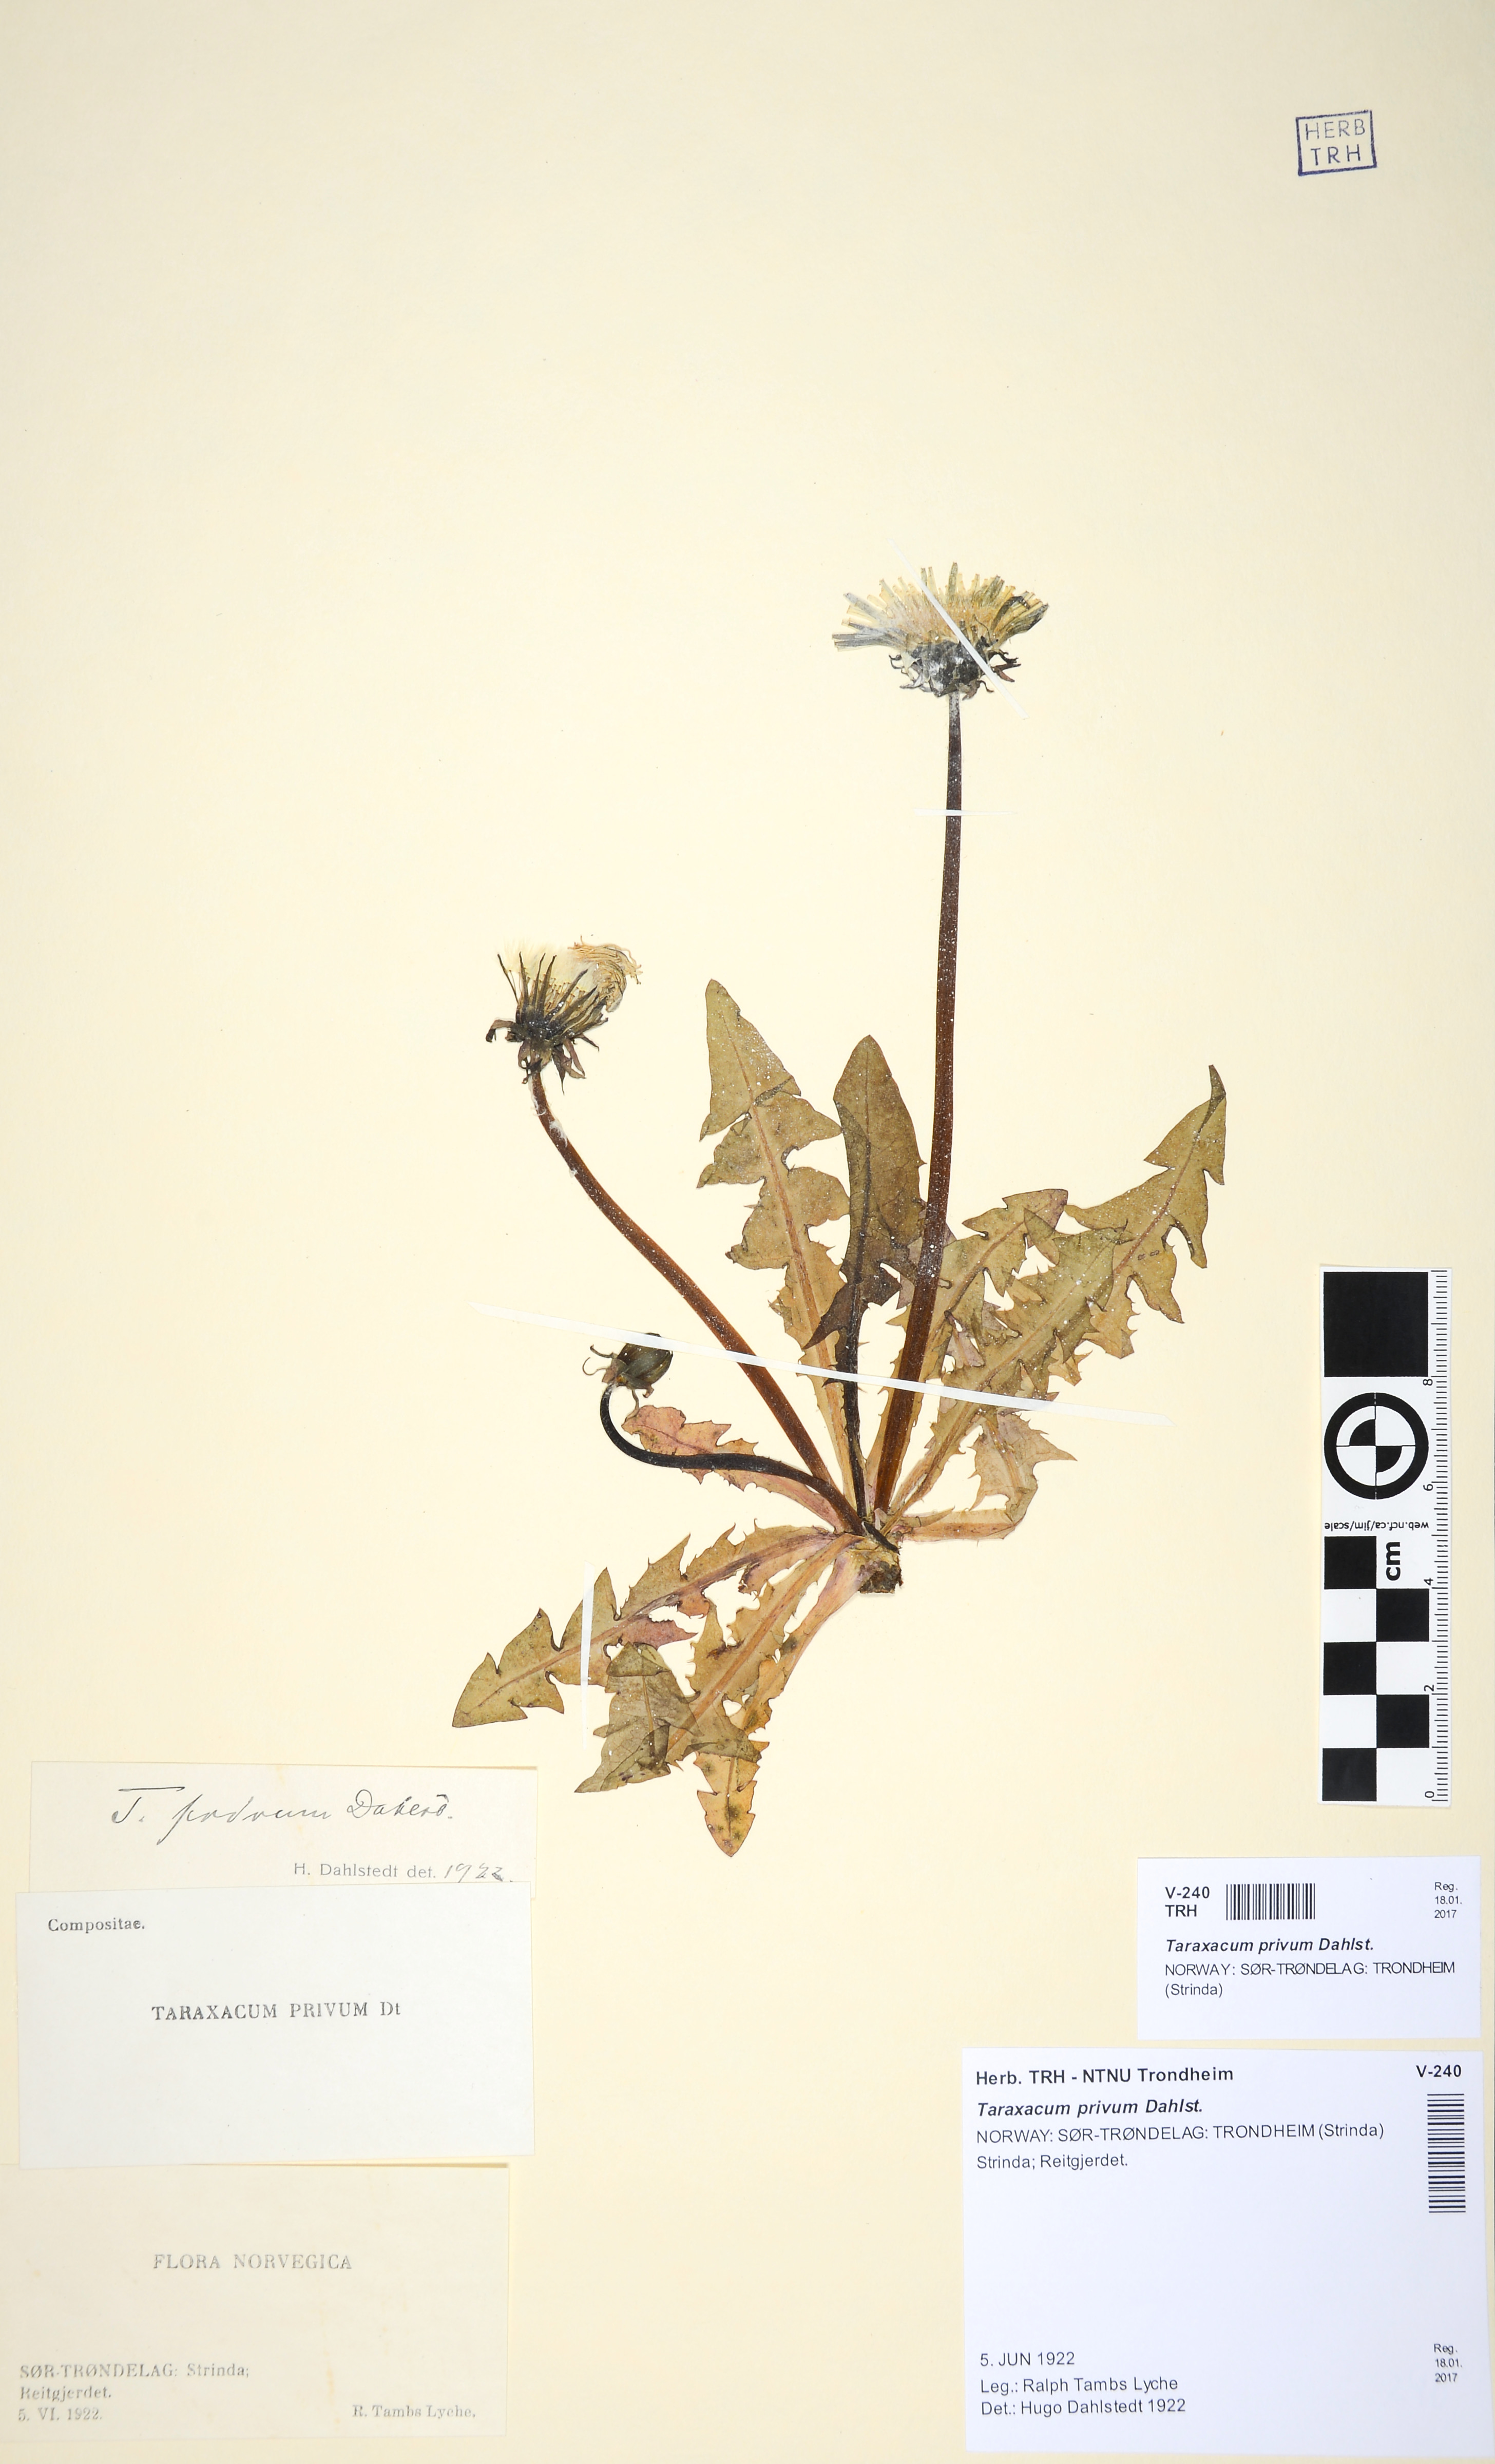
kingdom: Plantae
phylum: Tracheophyta
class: Magnoliopsida
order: Asterales
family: Asteraceae
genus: Taraxacum
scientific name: Taraxacum privum
